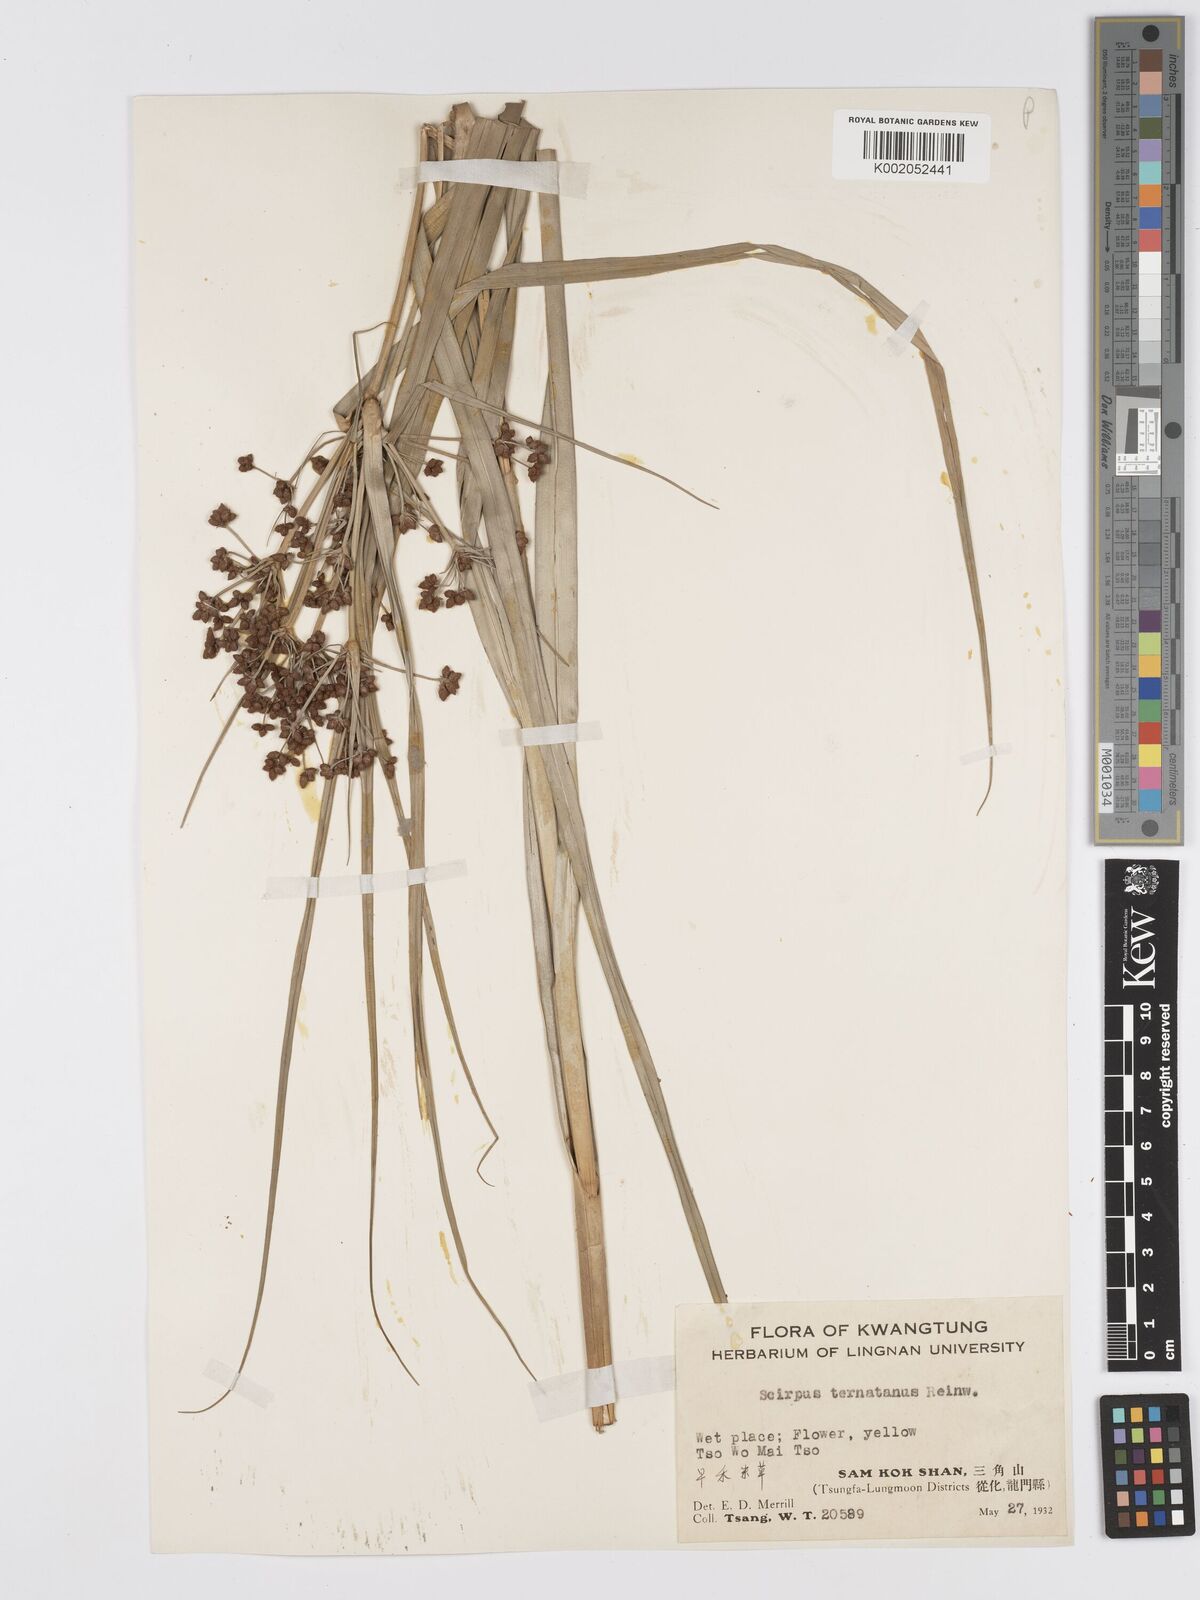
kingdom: Plantae
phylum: Tracheophyta
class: Liliopsida
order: Poales
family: Cyperaceae
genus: Scirpus
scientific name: Scirpus ternatanus
